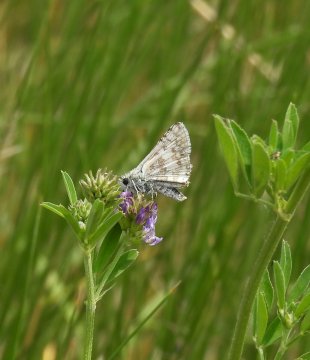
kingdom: Animalia
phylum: Arthropoda
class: Insecta
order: Lepidoptera
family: Hesperiidae
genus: Pyrgus
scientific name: Pyrgus communis
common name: Common Checkered-Skipper
